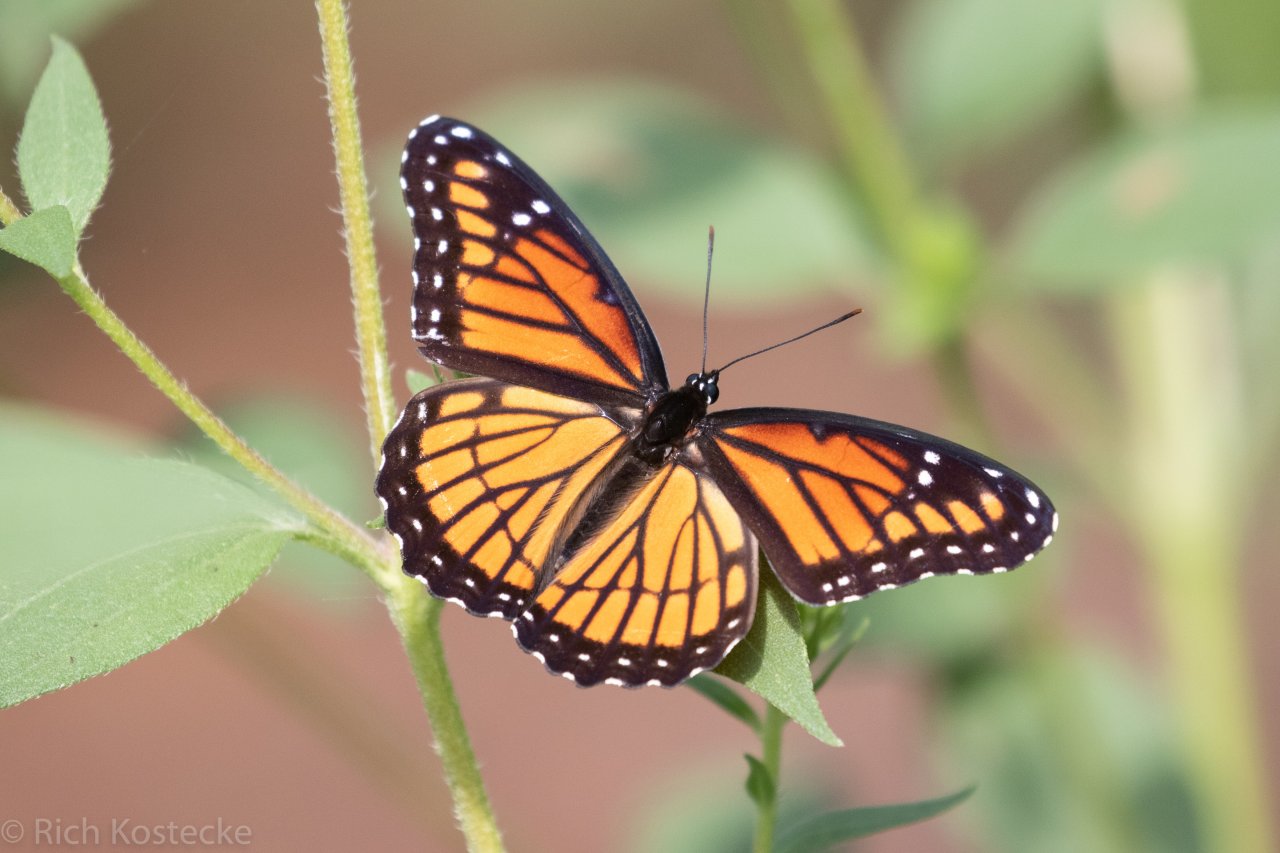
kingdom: Animalia
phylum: Arthropoda
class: Insecta
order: Lepidoptera
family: Nymphalidae
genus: Limenitis
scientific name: Limenitis archippus
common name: Viceroy
